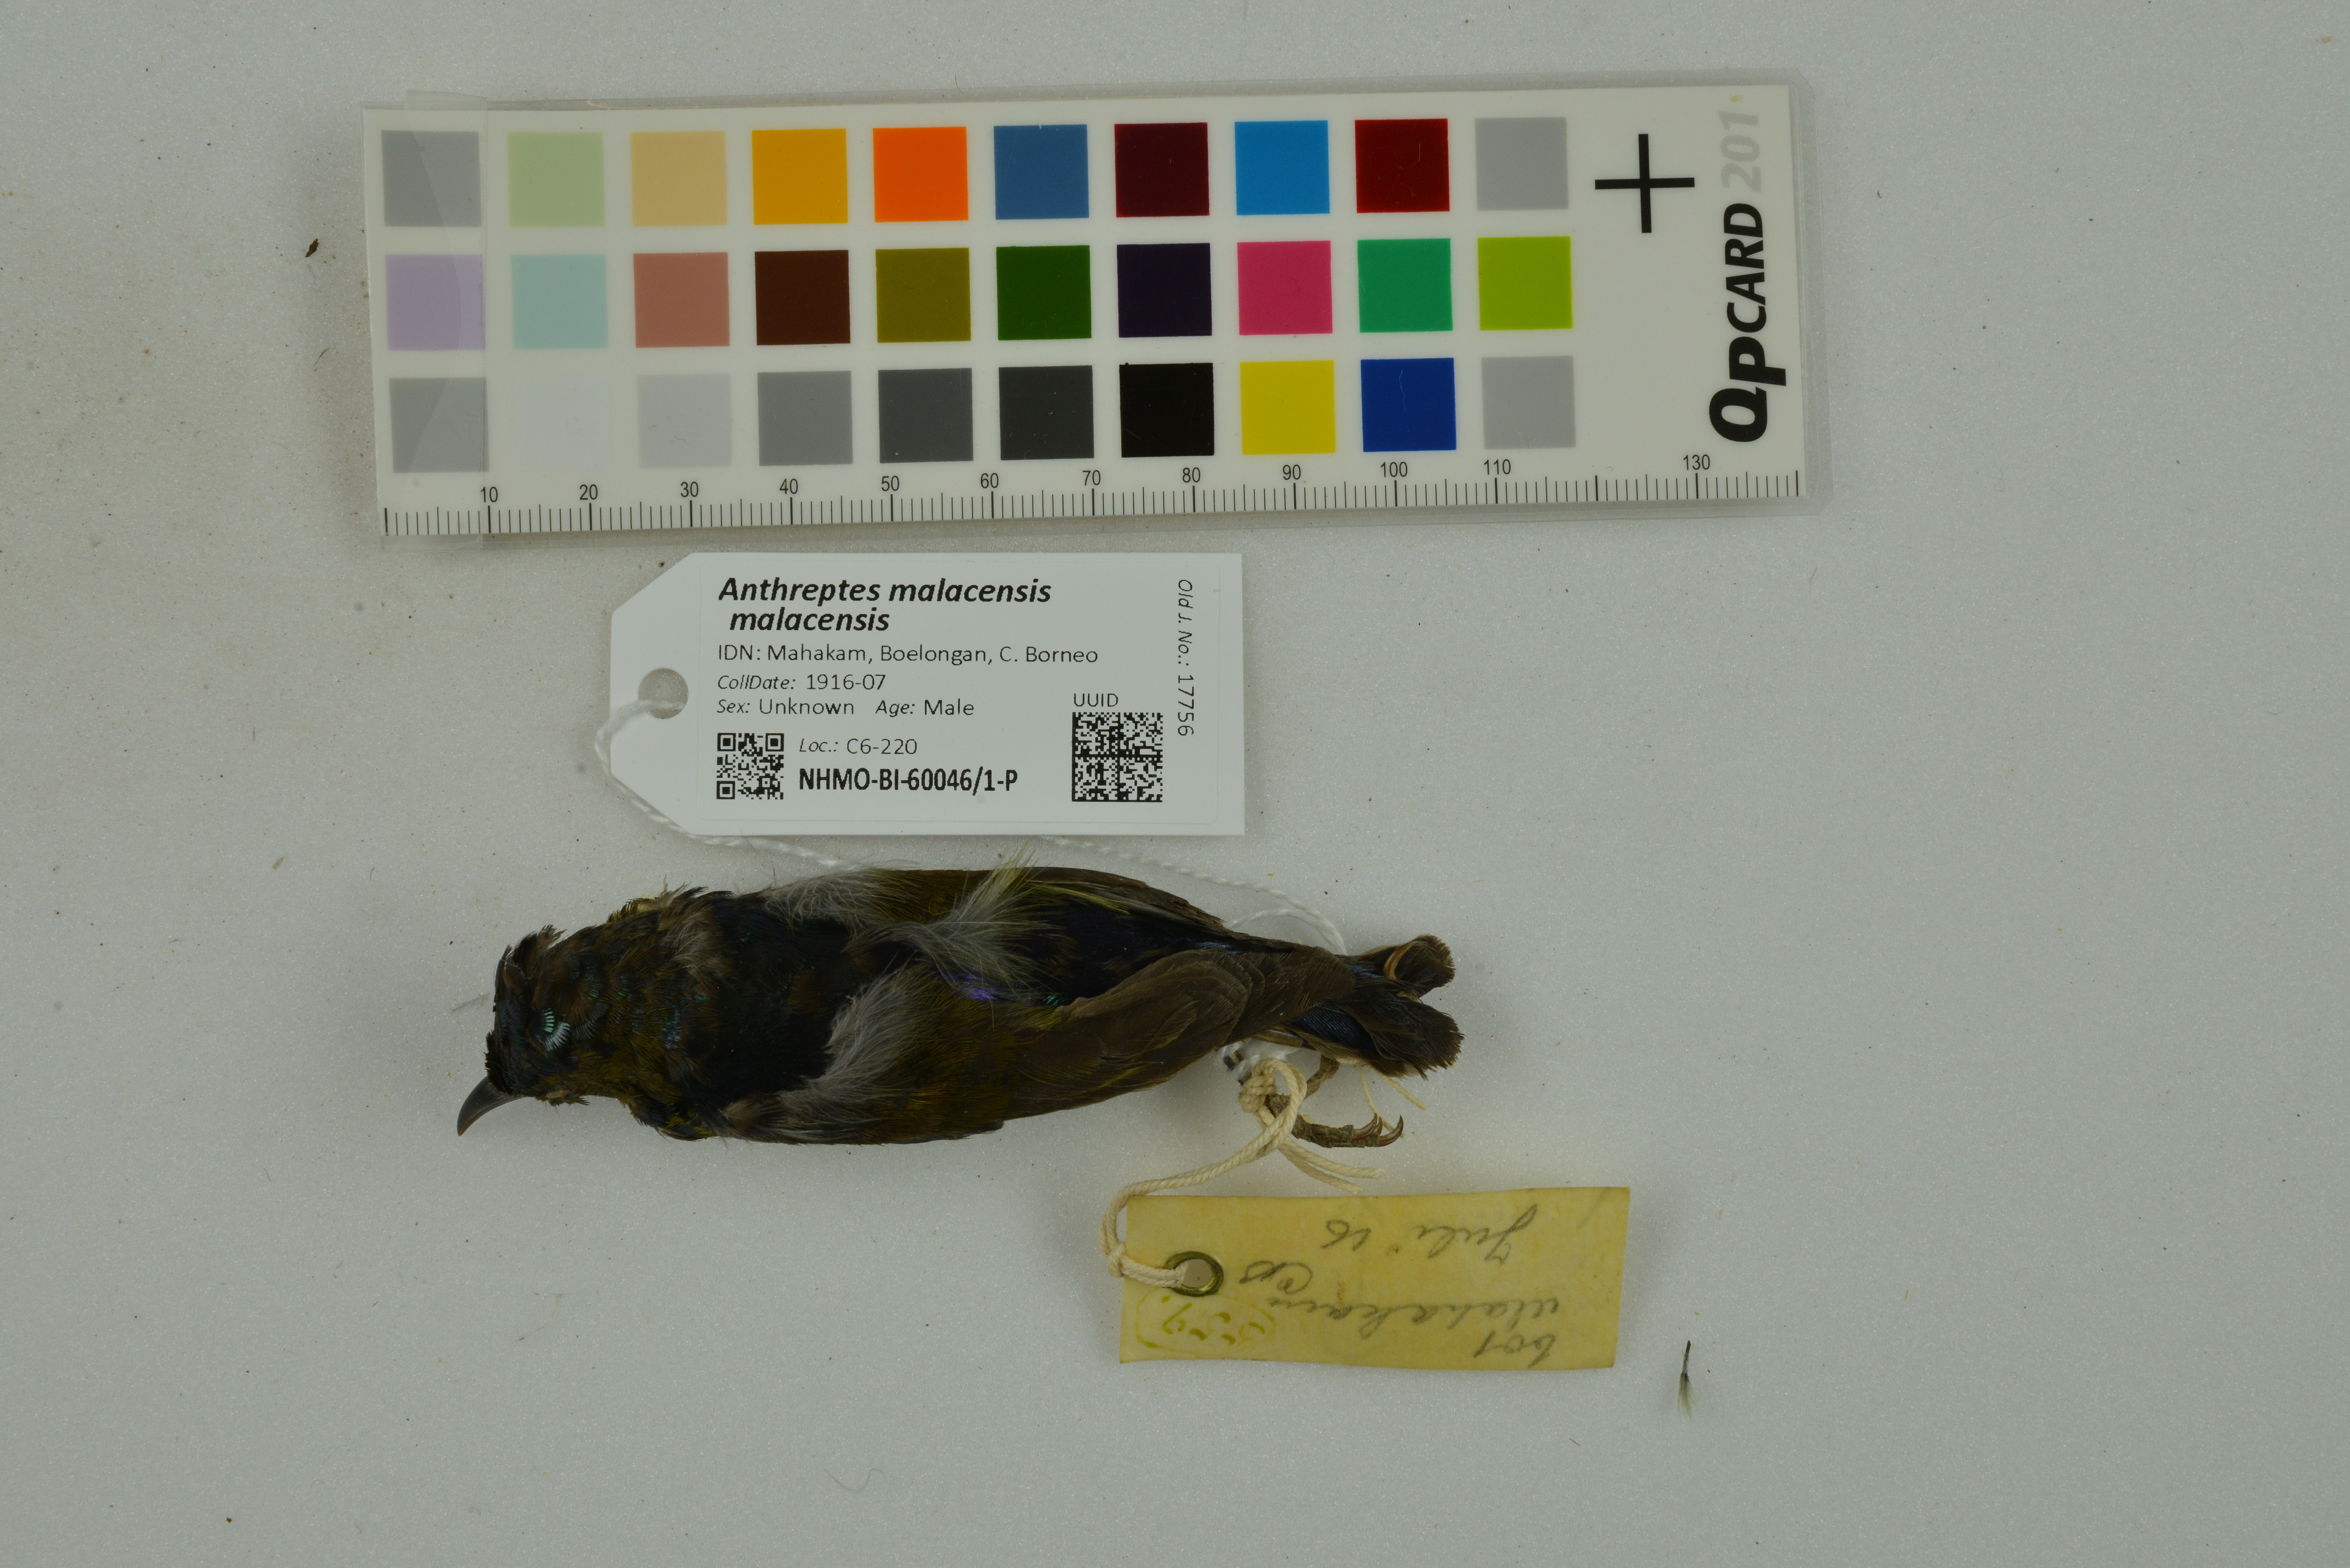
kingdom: Animalia
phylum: Chordata
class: Aves
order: Passeriformes
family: Nectariniidae
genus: Anthreptes
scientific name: Anthreptes malacensis
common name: Brown-throated sunbird
